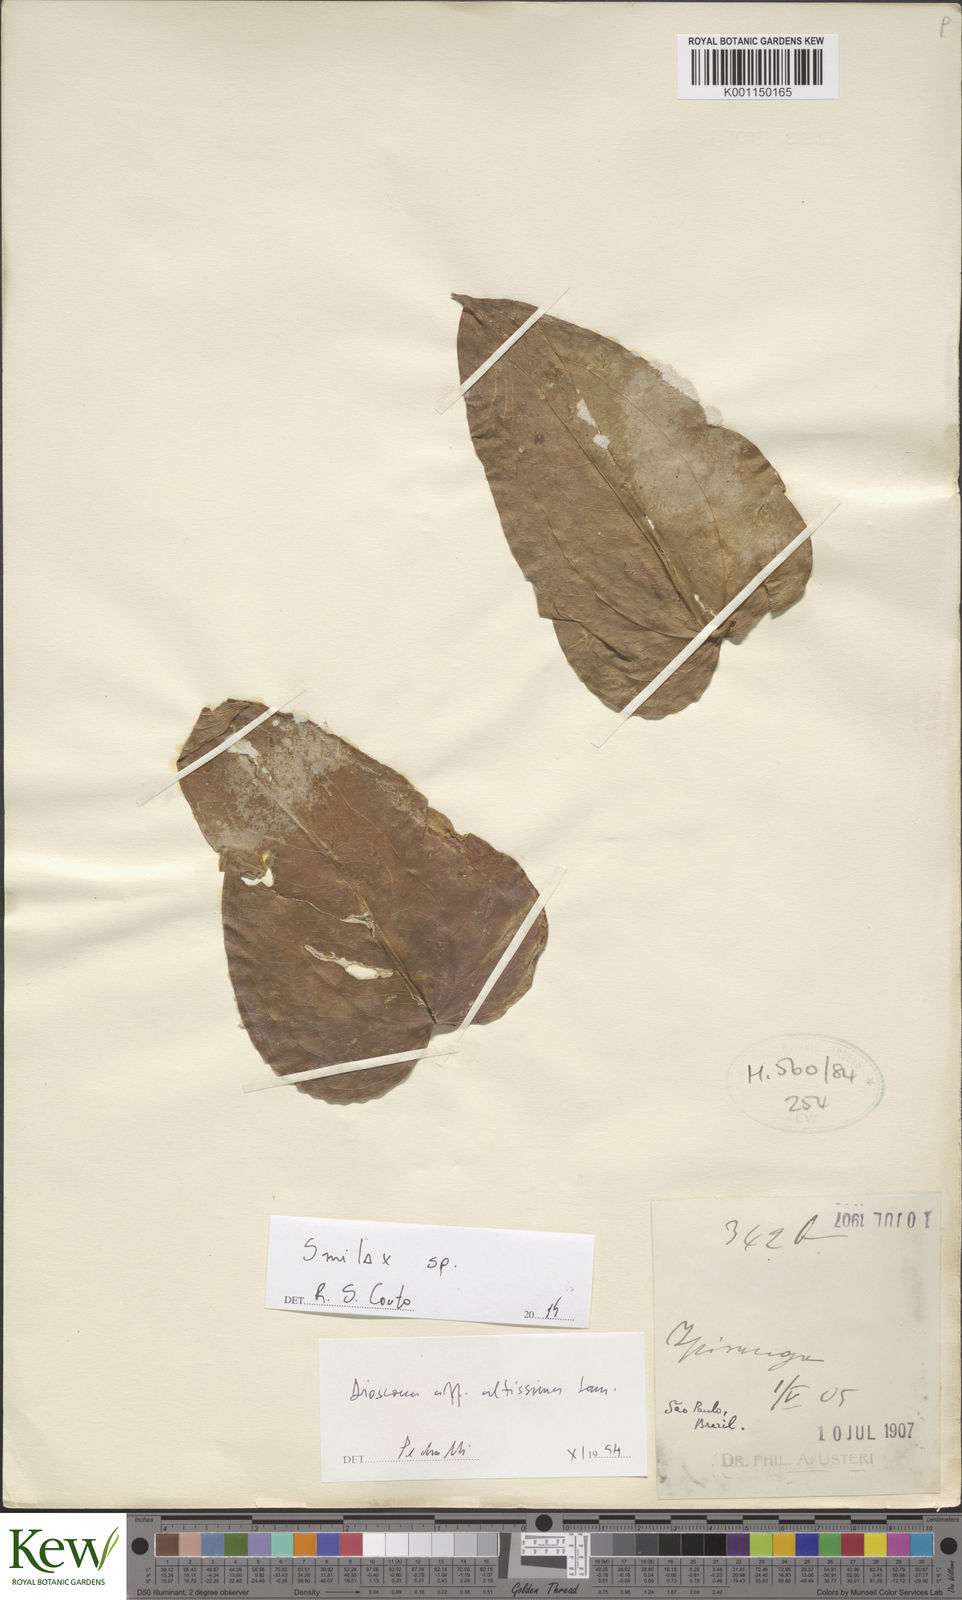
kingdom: Plantae
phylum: Tracheophyta
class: Liliopsida
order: Liliales
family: Smilacaceae
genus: Smilax
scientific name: Smilax
